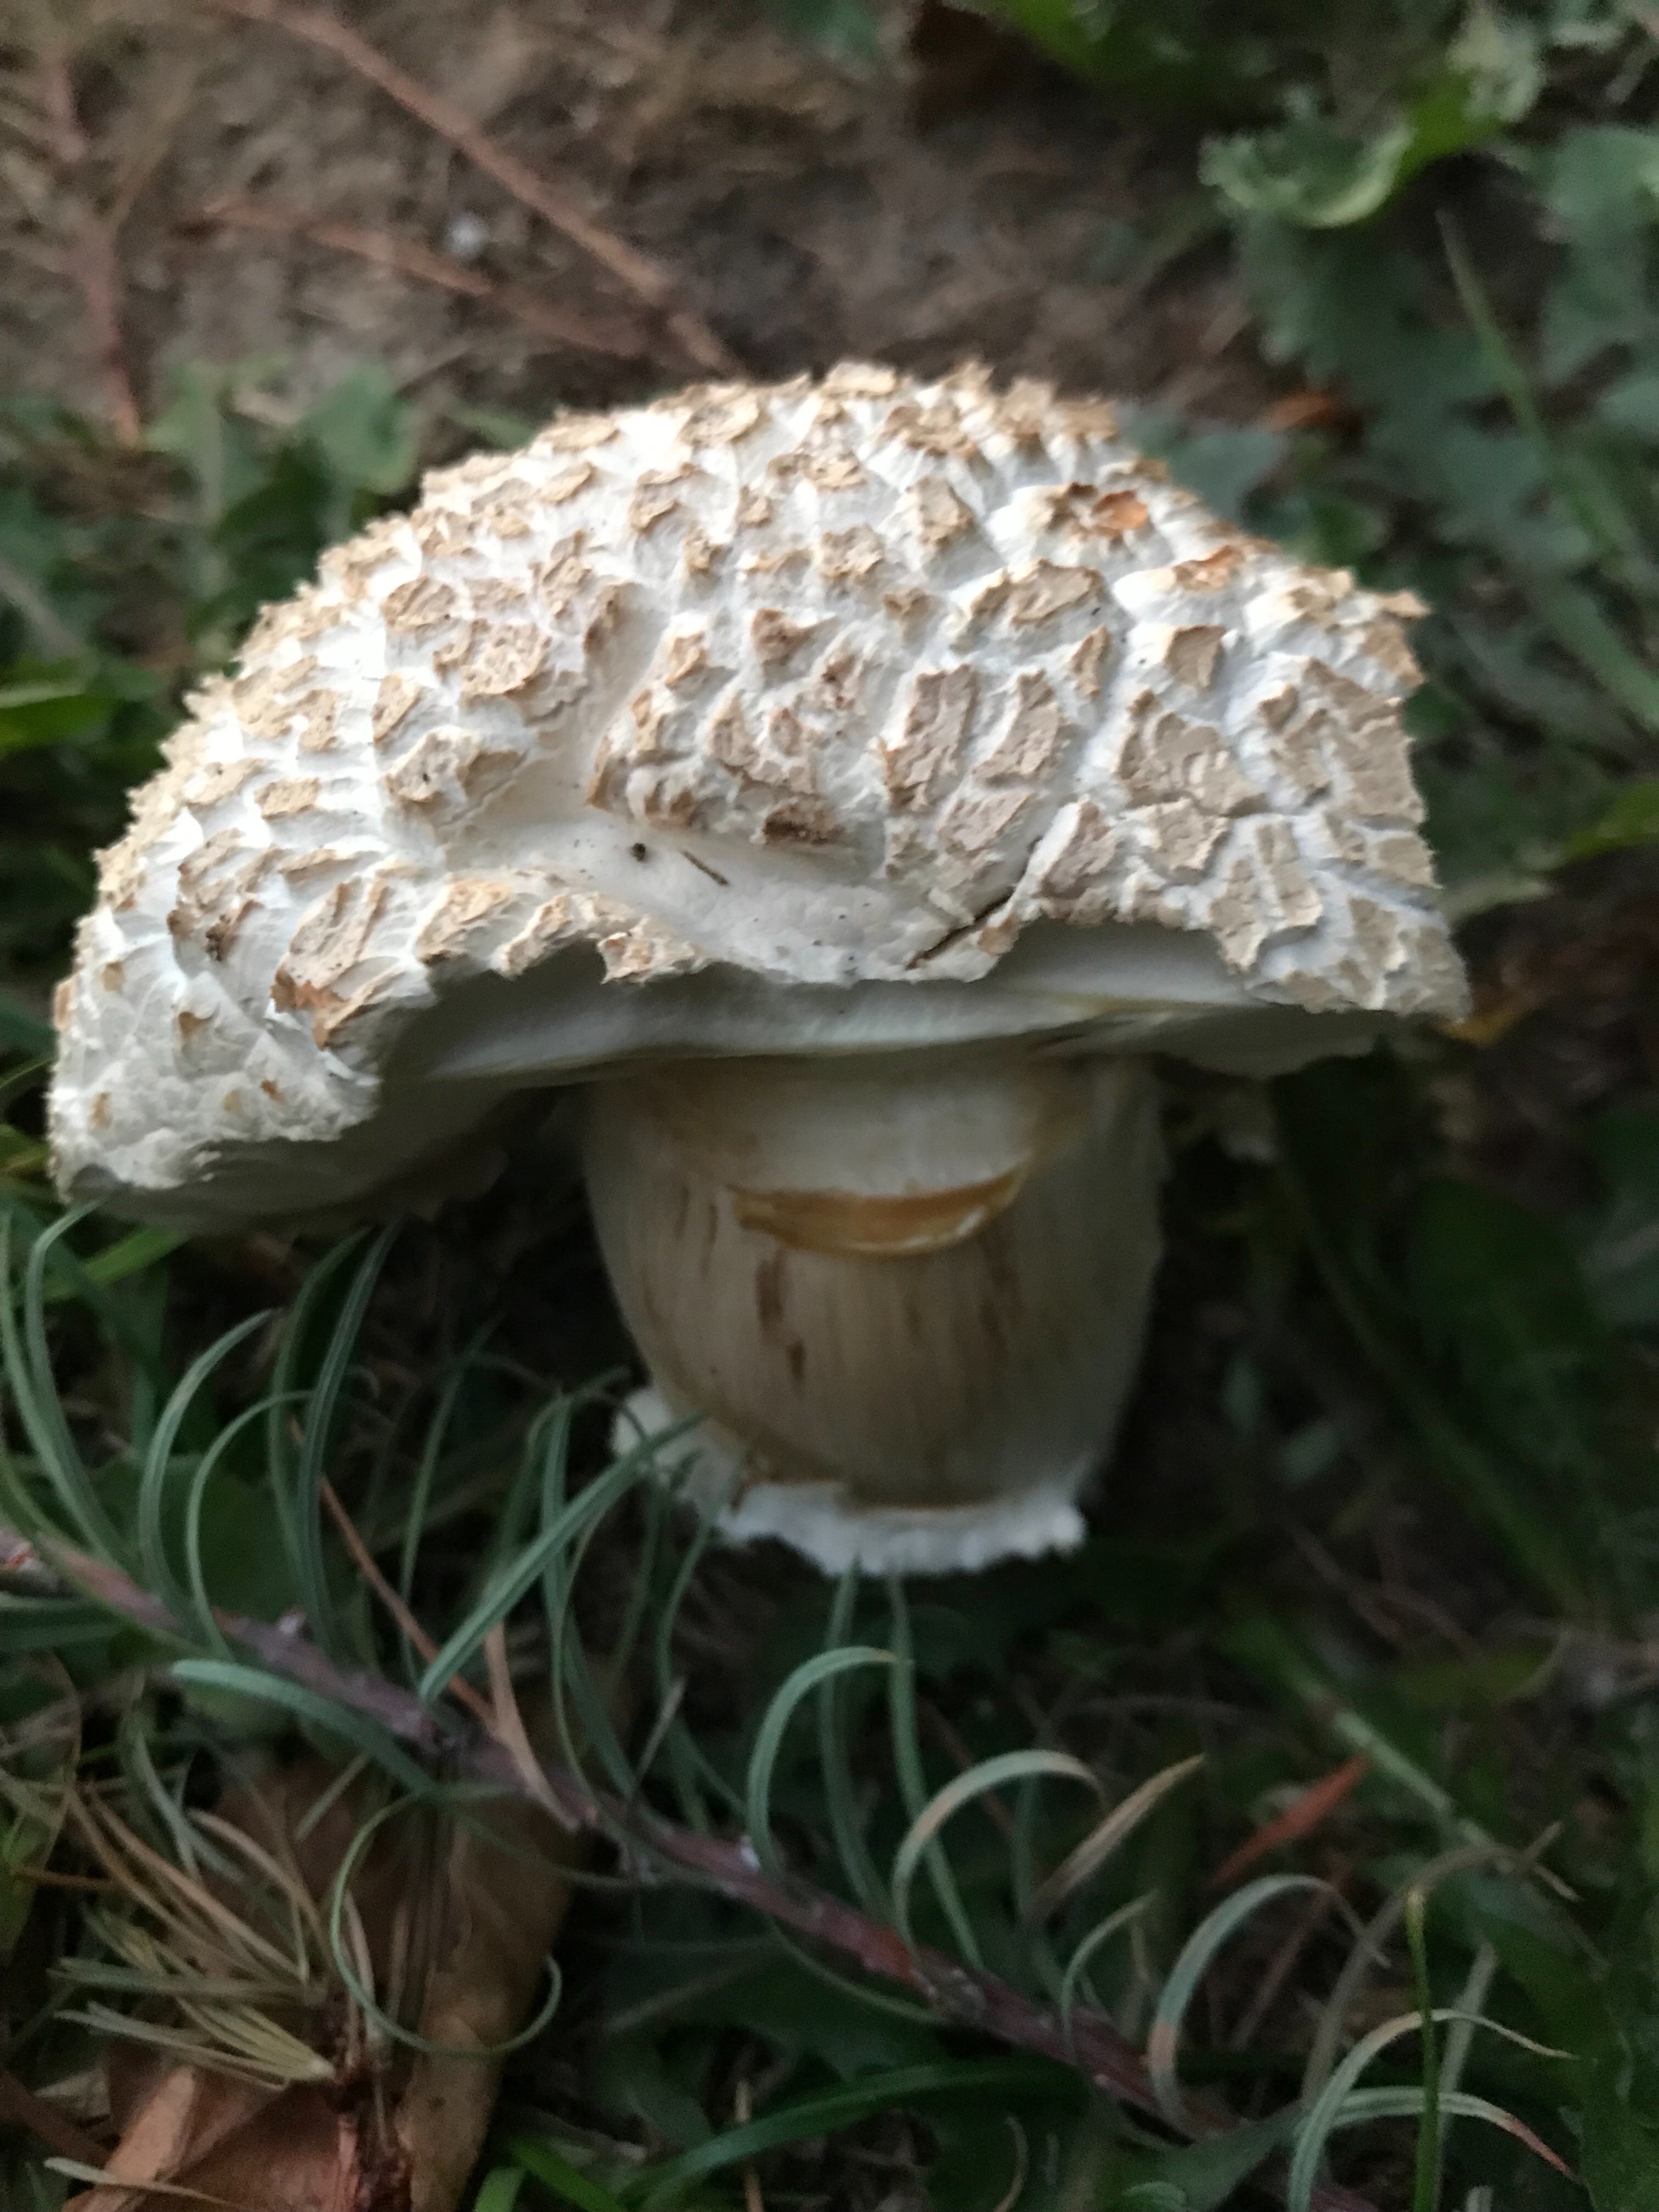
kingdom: Fungi
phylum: Basidiomycota
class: Agaricomycetes
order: Agaricales
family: Agaricaceae
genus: Agaricus
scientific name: Agaricus bernardii
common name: strandengs-champignon
